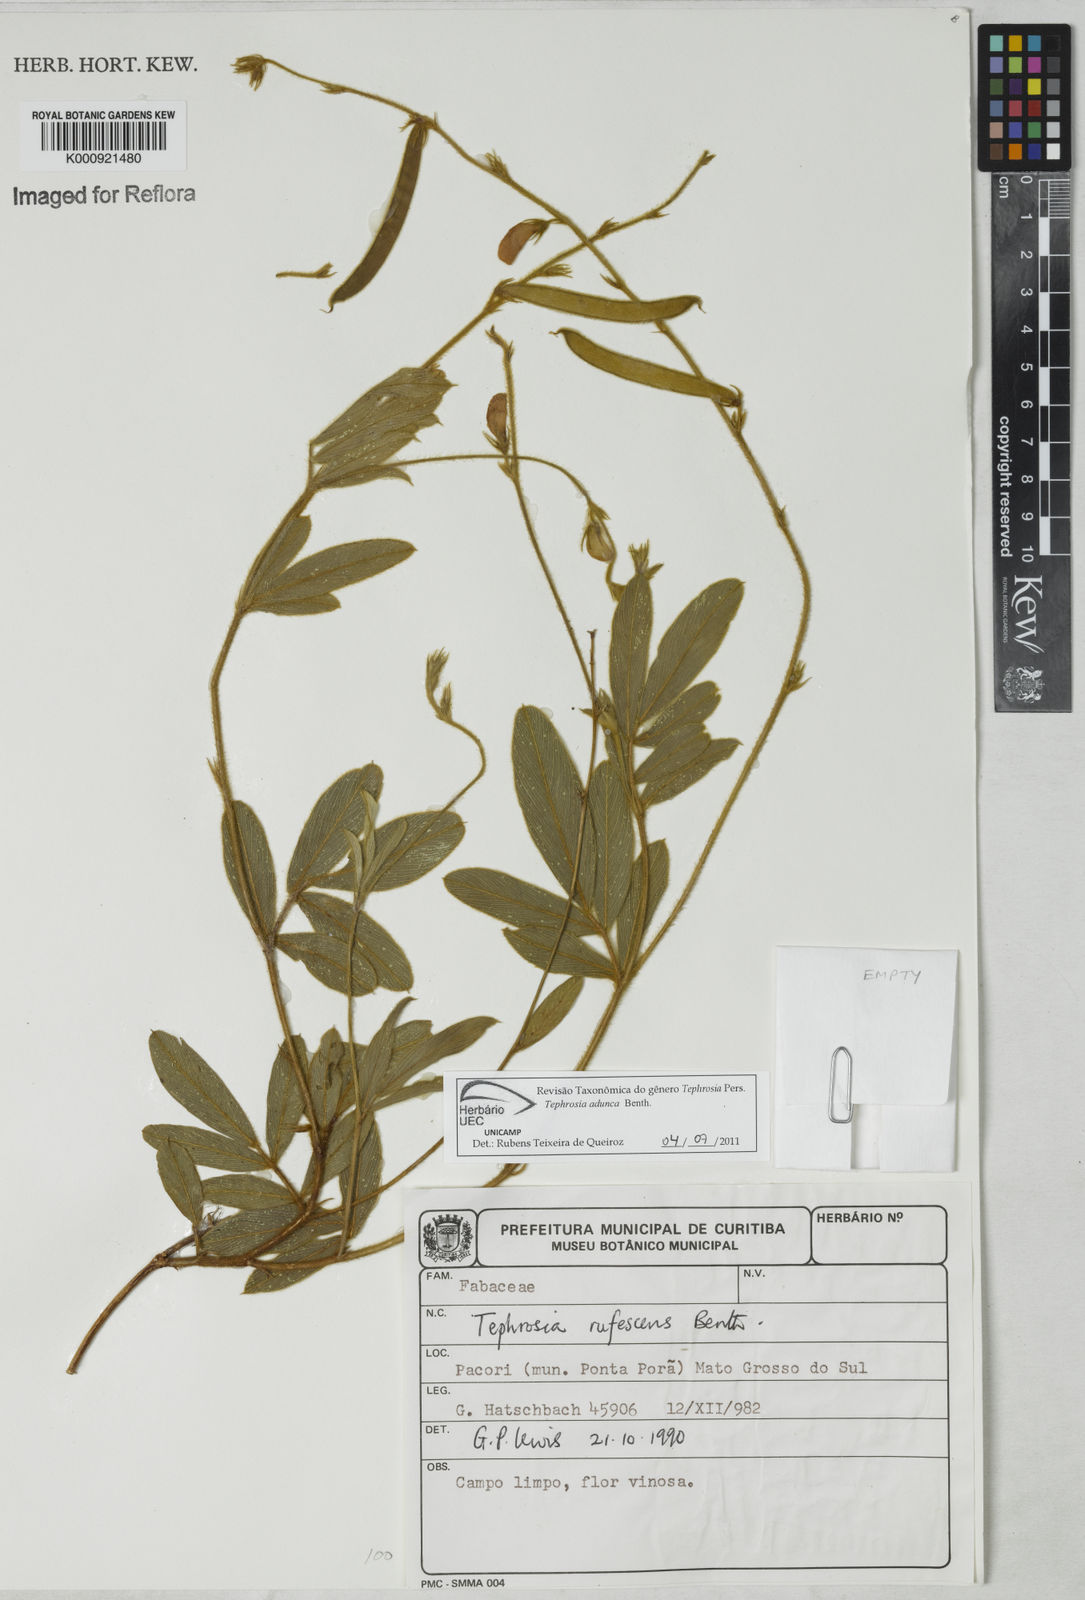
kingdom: Plantae
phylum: Tracheophyta
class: Magnoliopsida
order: Fabales
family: Fabaceae
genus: Tephrosia
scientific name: Tephrosia adunca
